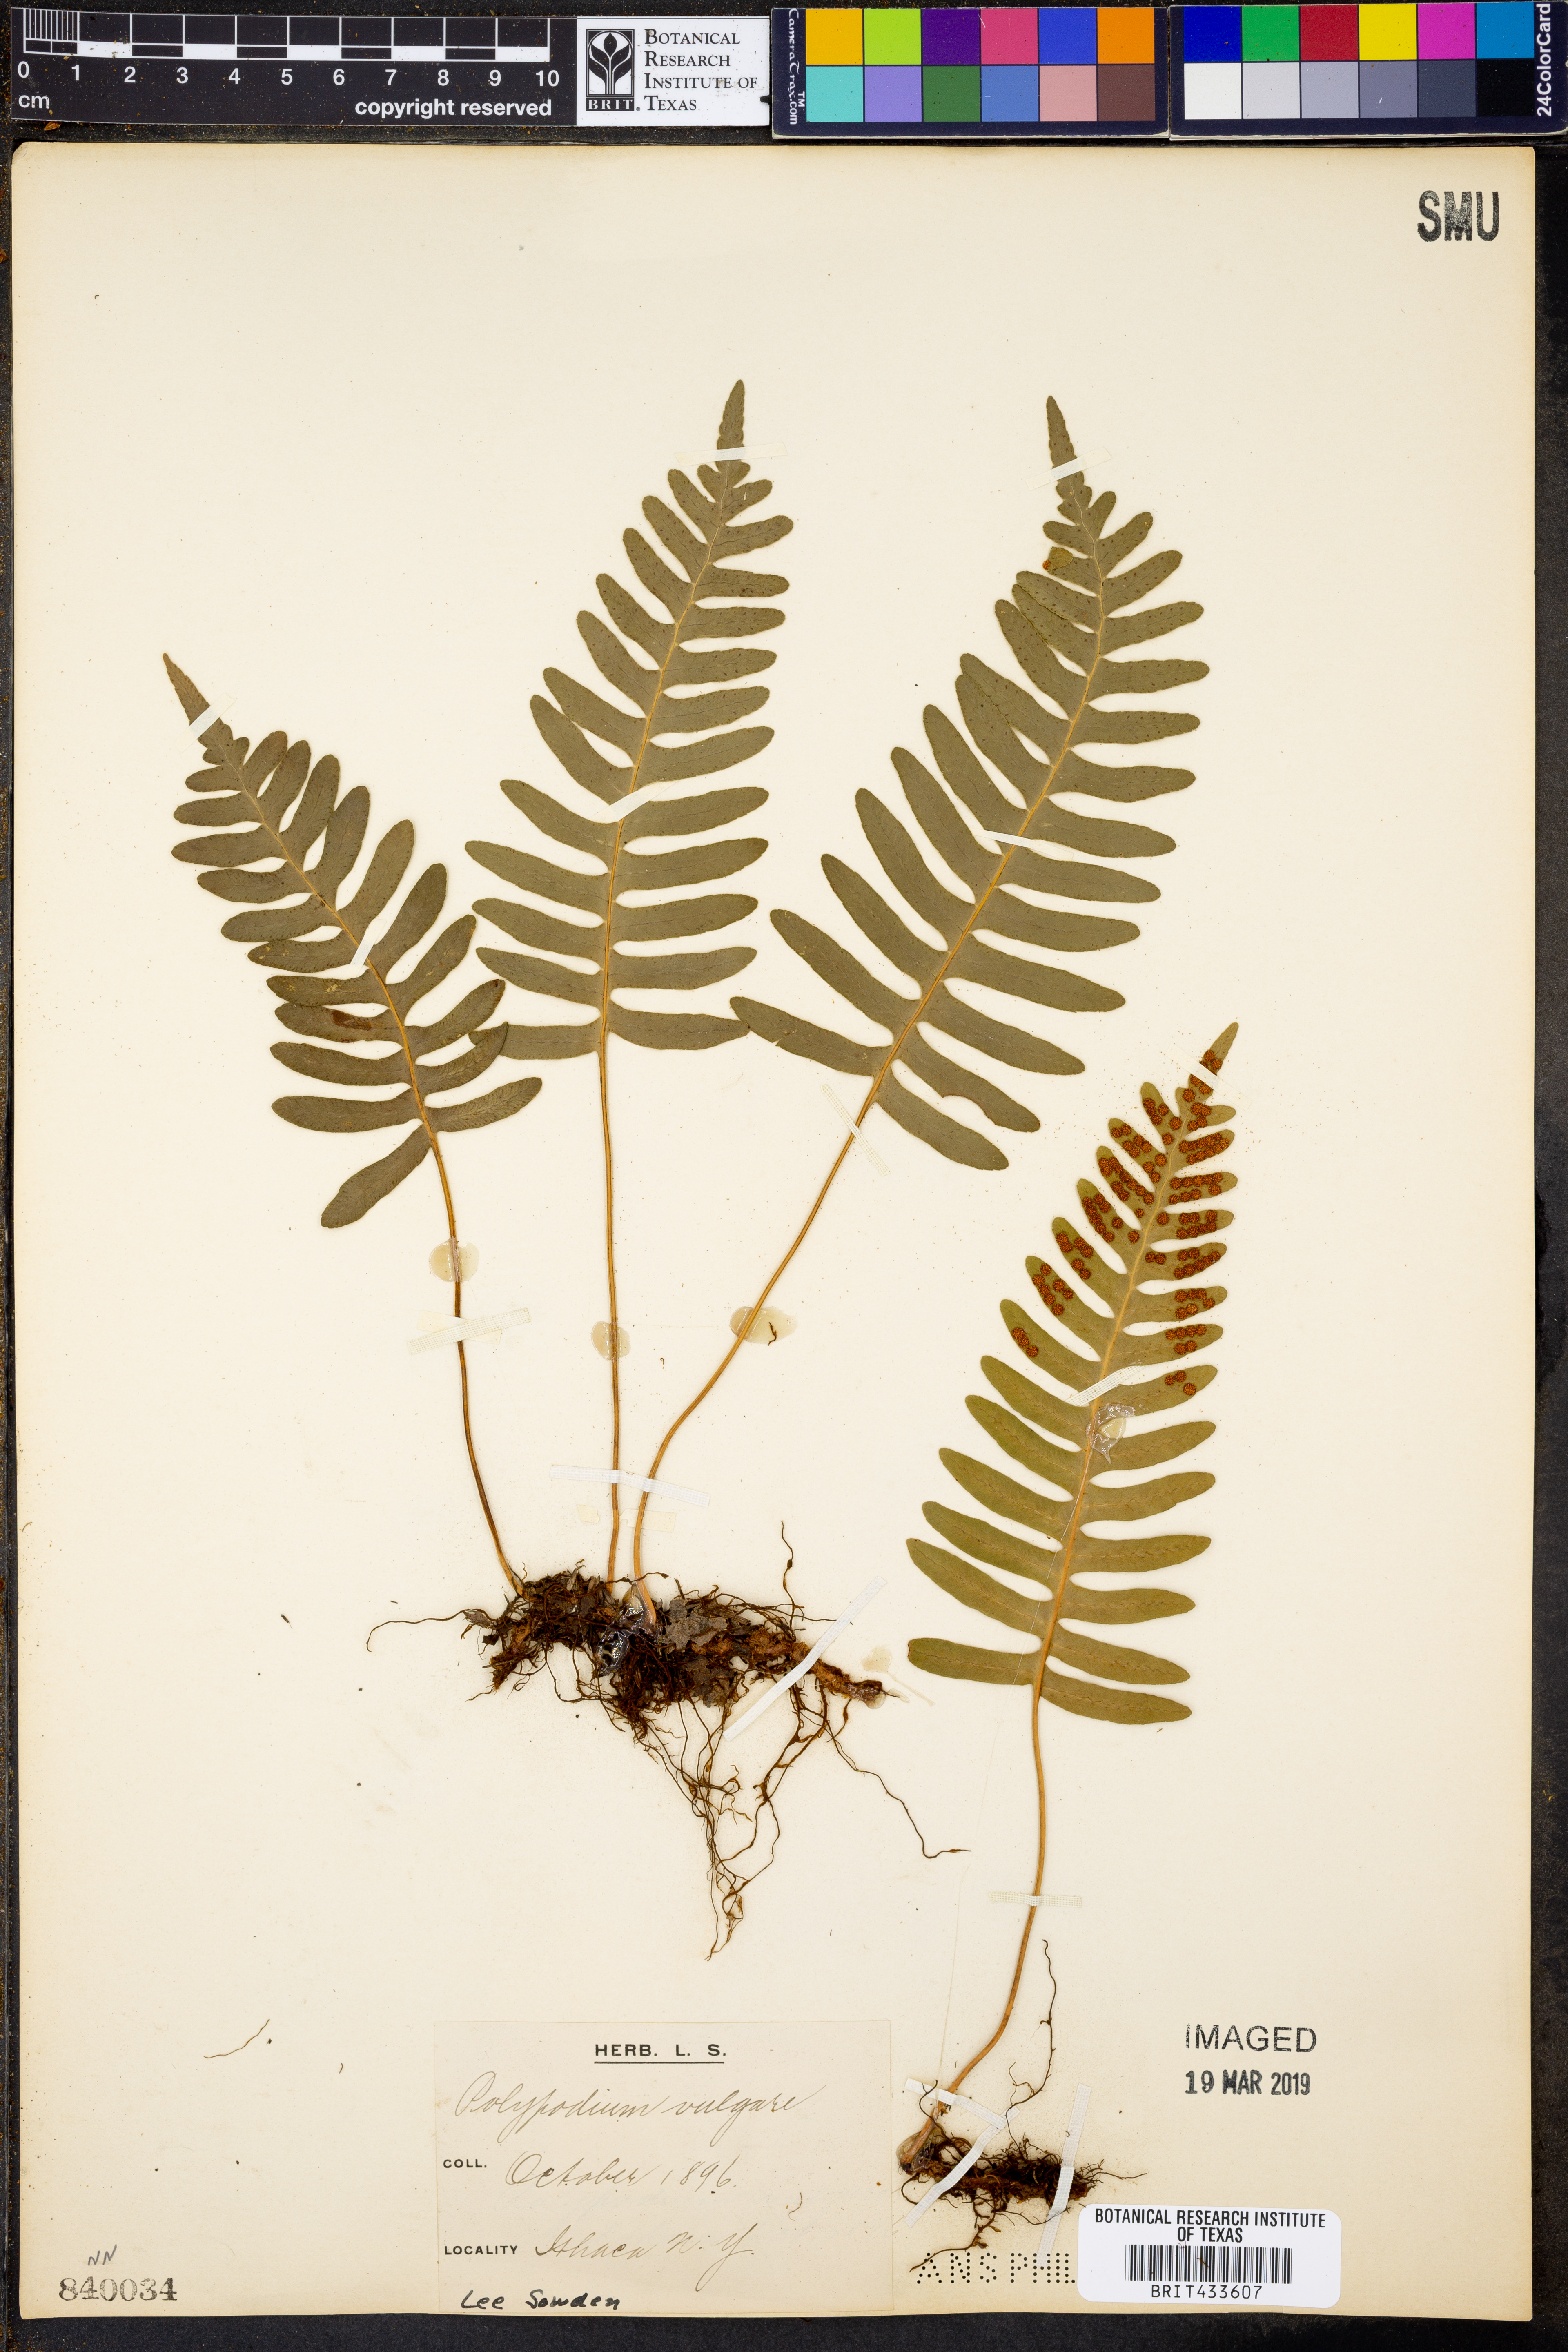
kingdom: Plantae
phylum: Tracheophyta
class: Polypodiopsida
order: Polypodiales
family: Polypodiaceae
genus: Polypodium
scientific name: Polypodium vulgare
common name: Common polypody
